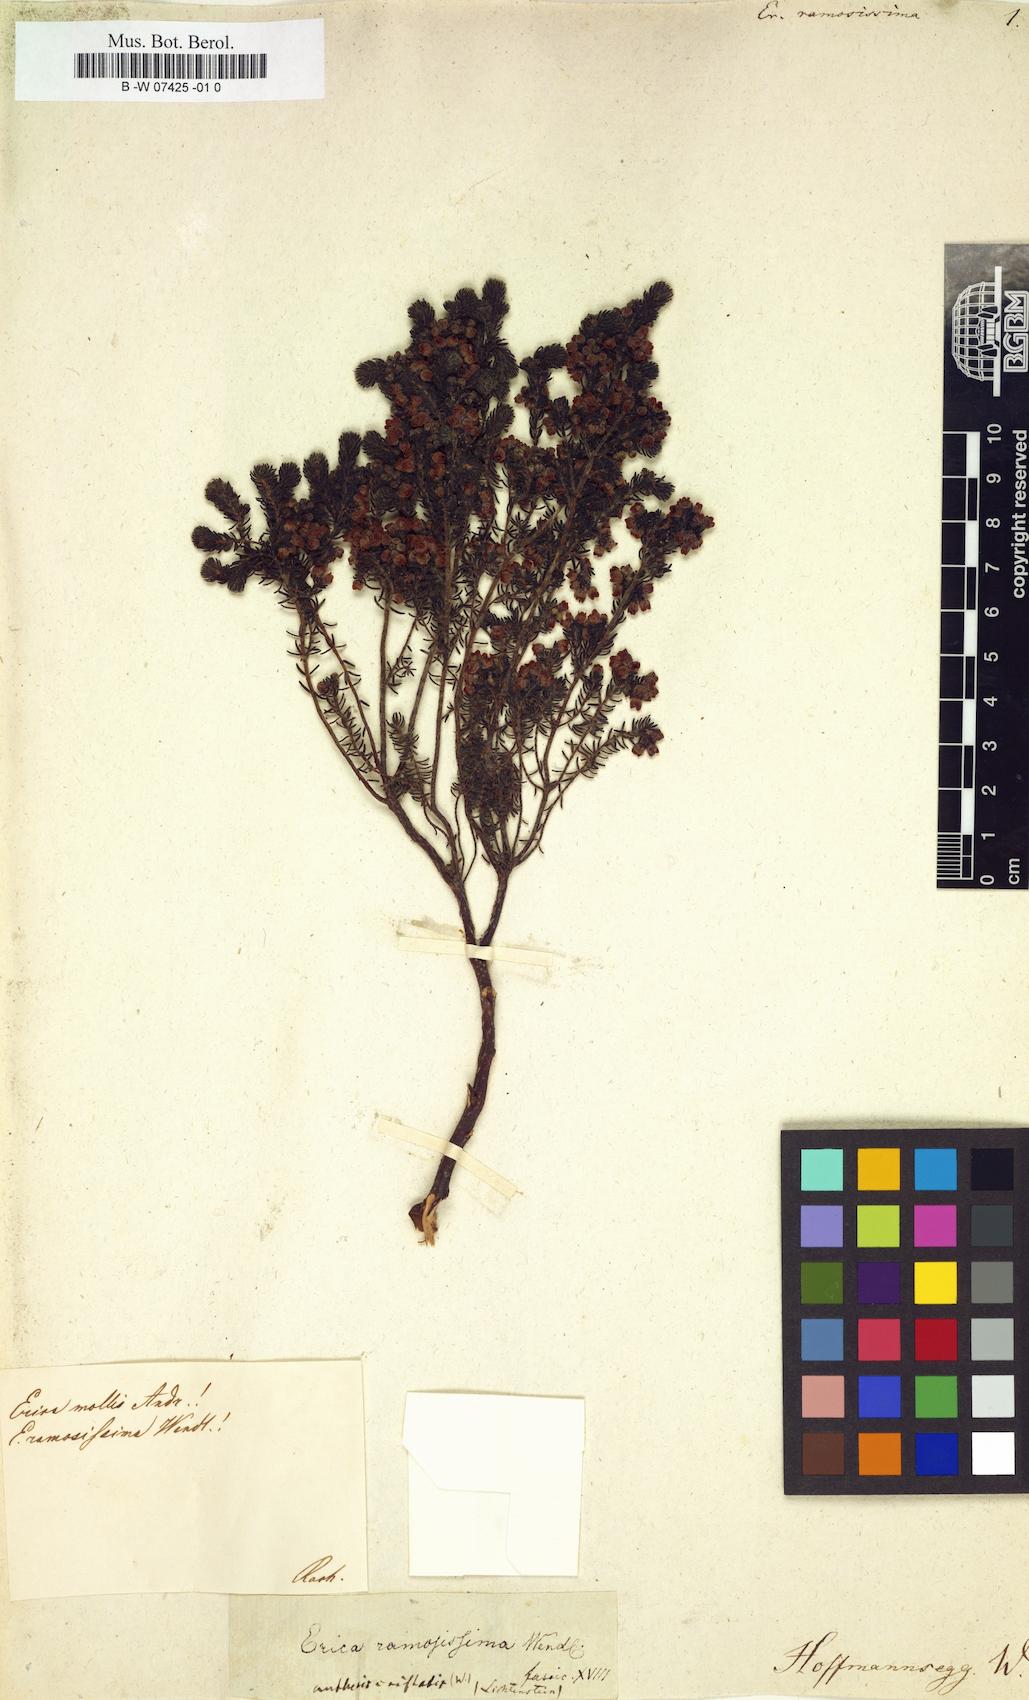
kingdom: Plantae
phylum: Tracheophyta
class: Magnoliopsida
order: Ericales
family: Ericaceae
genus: Erica
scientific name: Erica salax
